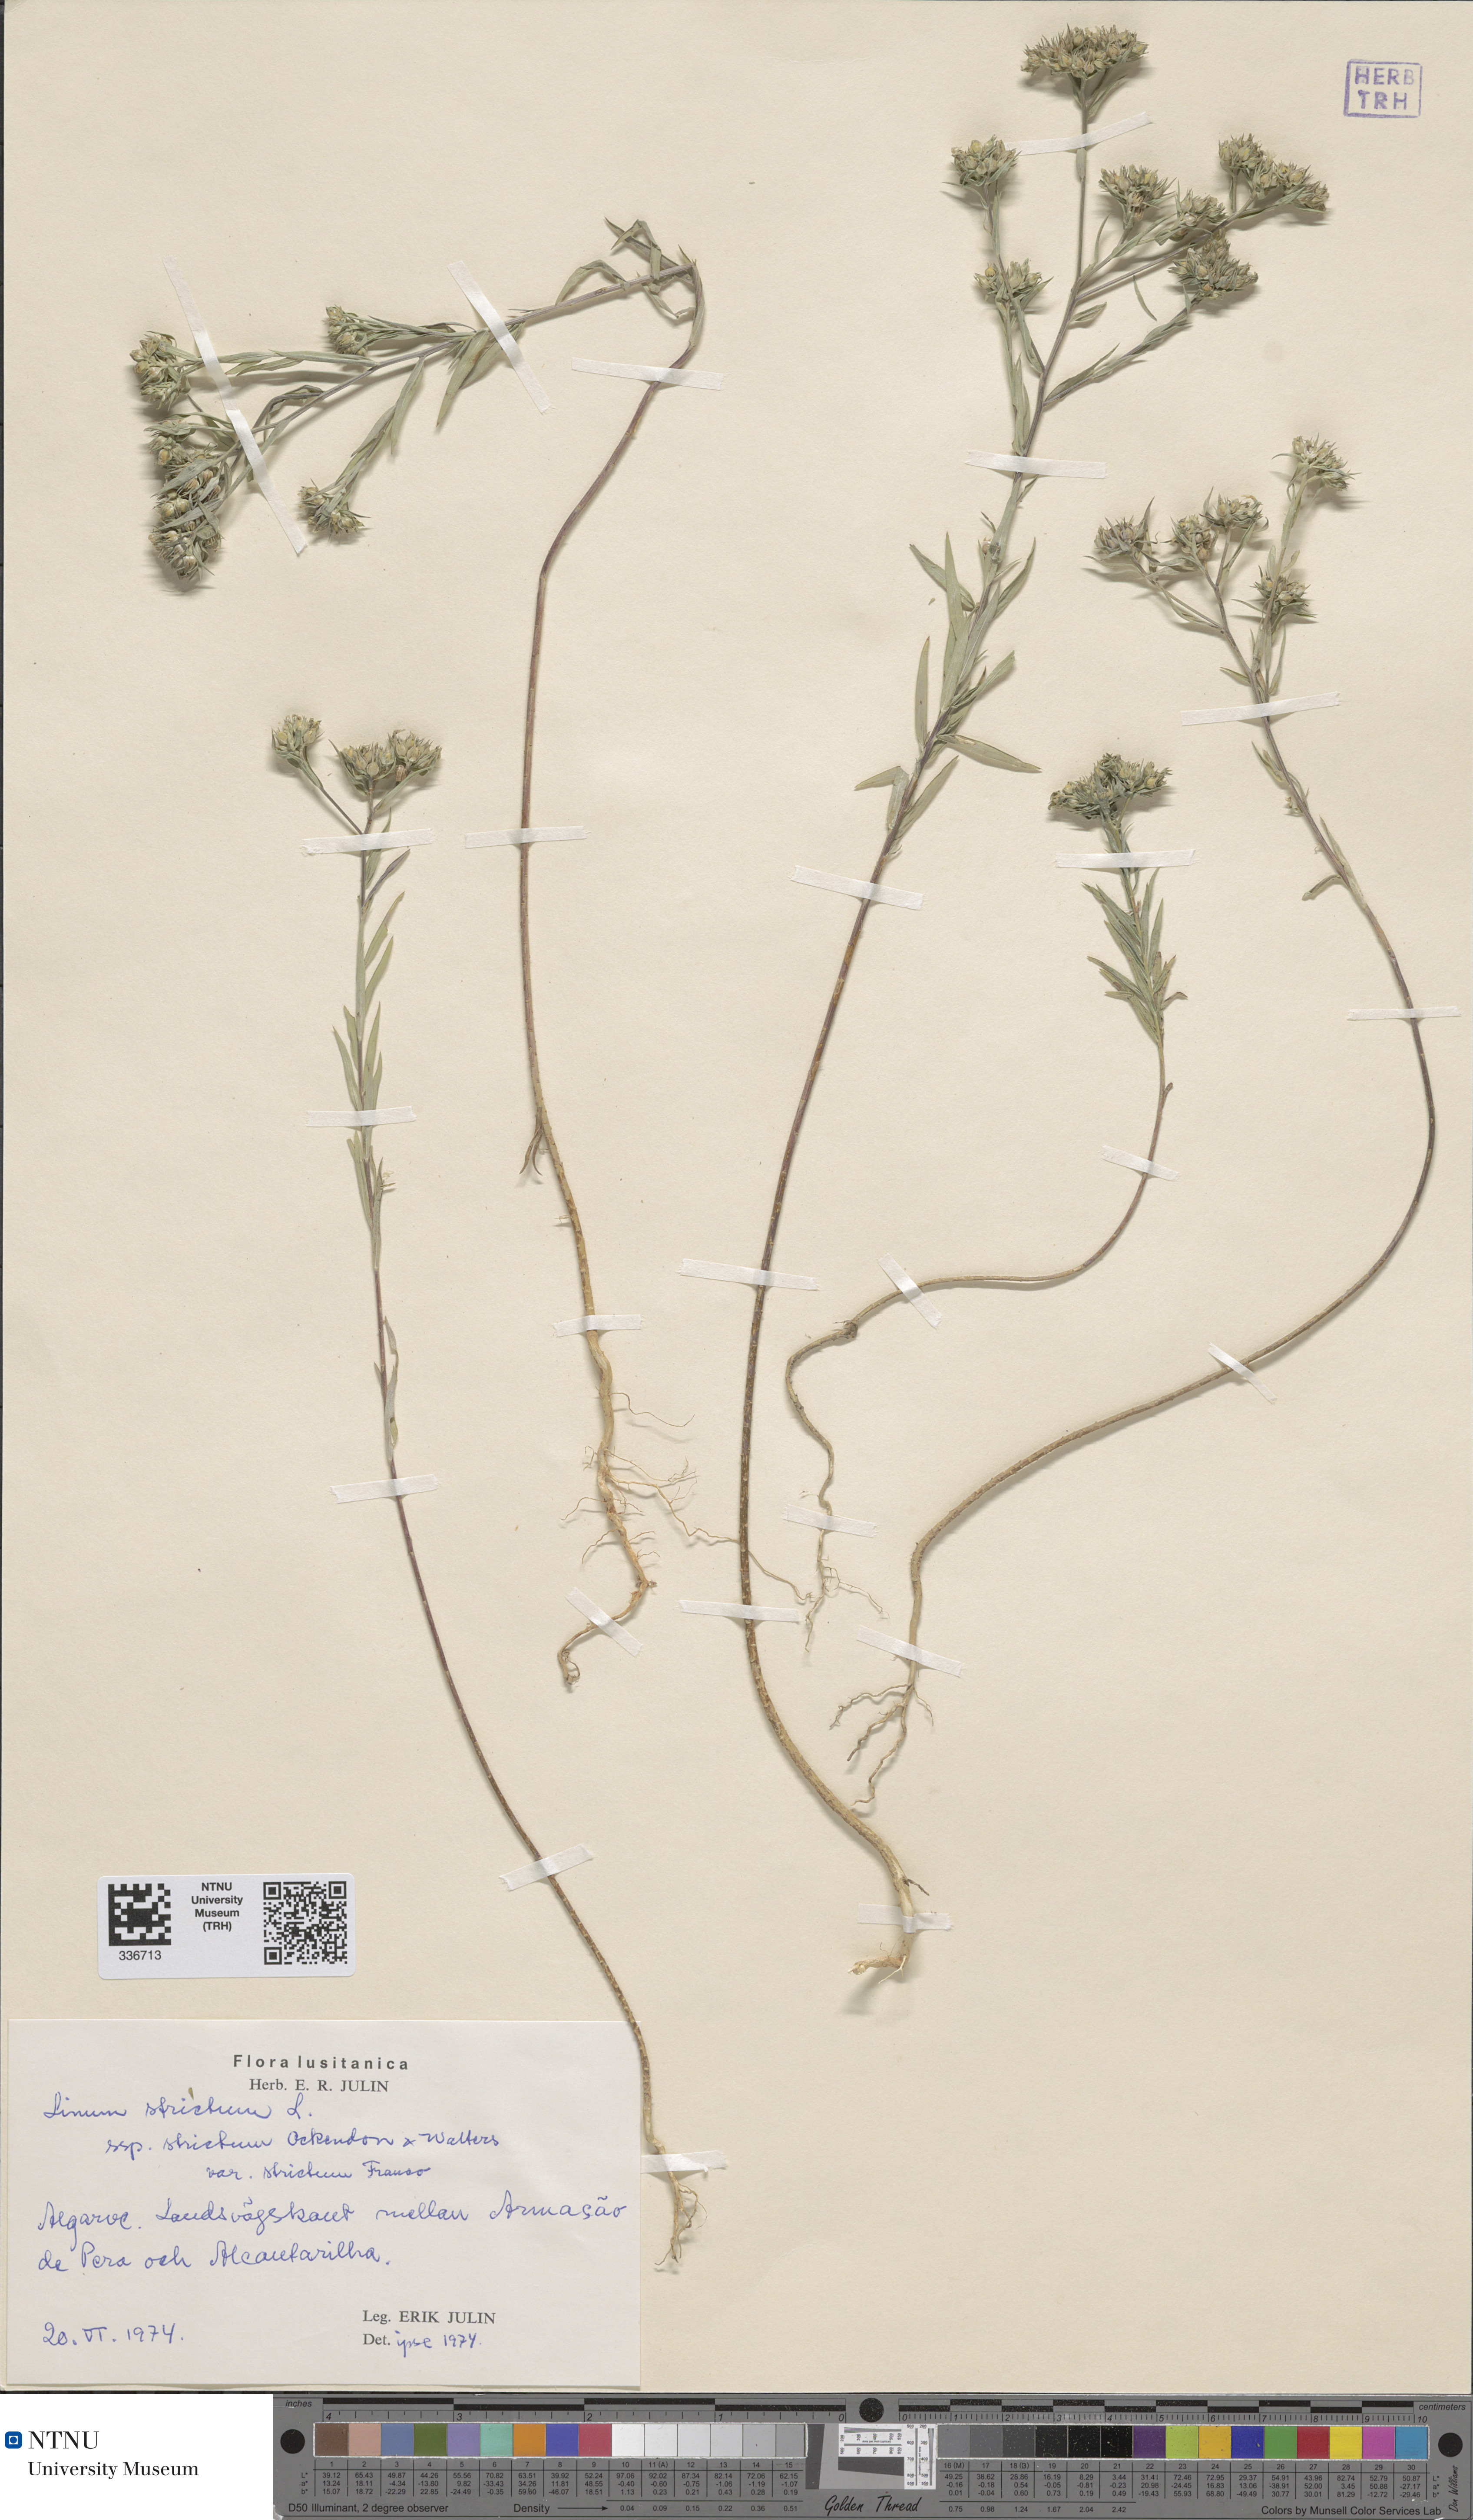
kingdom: Plantae
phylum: Tracheophyta
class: Magnoliopsida
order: Malpighiales
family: Linaceae
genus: Linum
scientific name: Linum strictum
